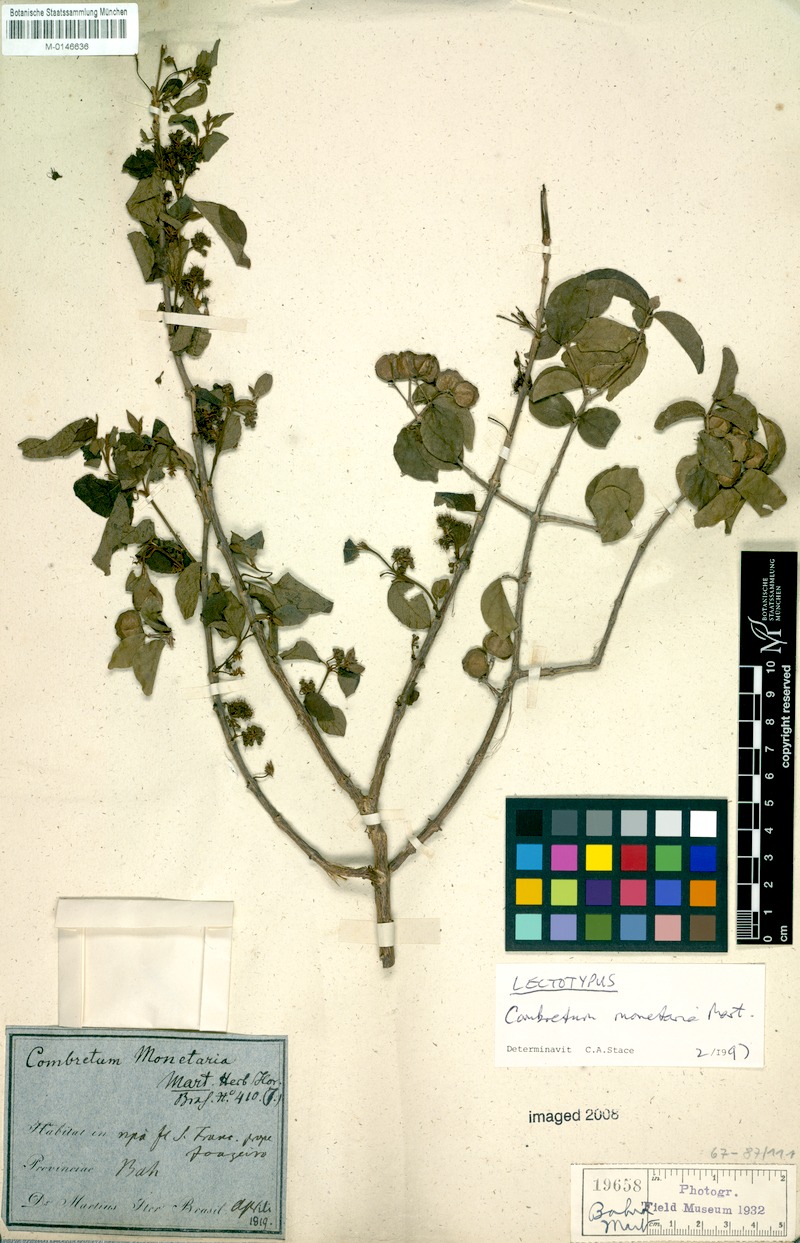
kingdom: Plantae
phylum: Tracheophyta
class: Magnoliopsida
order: Myrtales
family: Combretaceae
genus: Combretum
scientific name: Combretum monetaria
